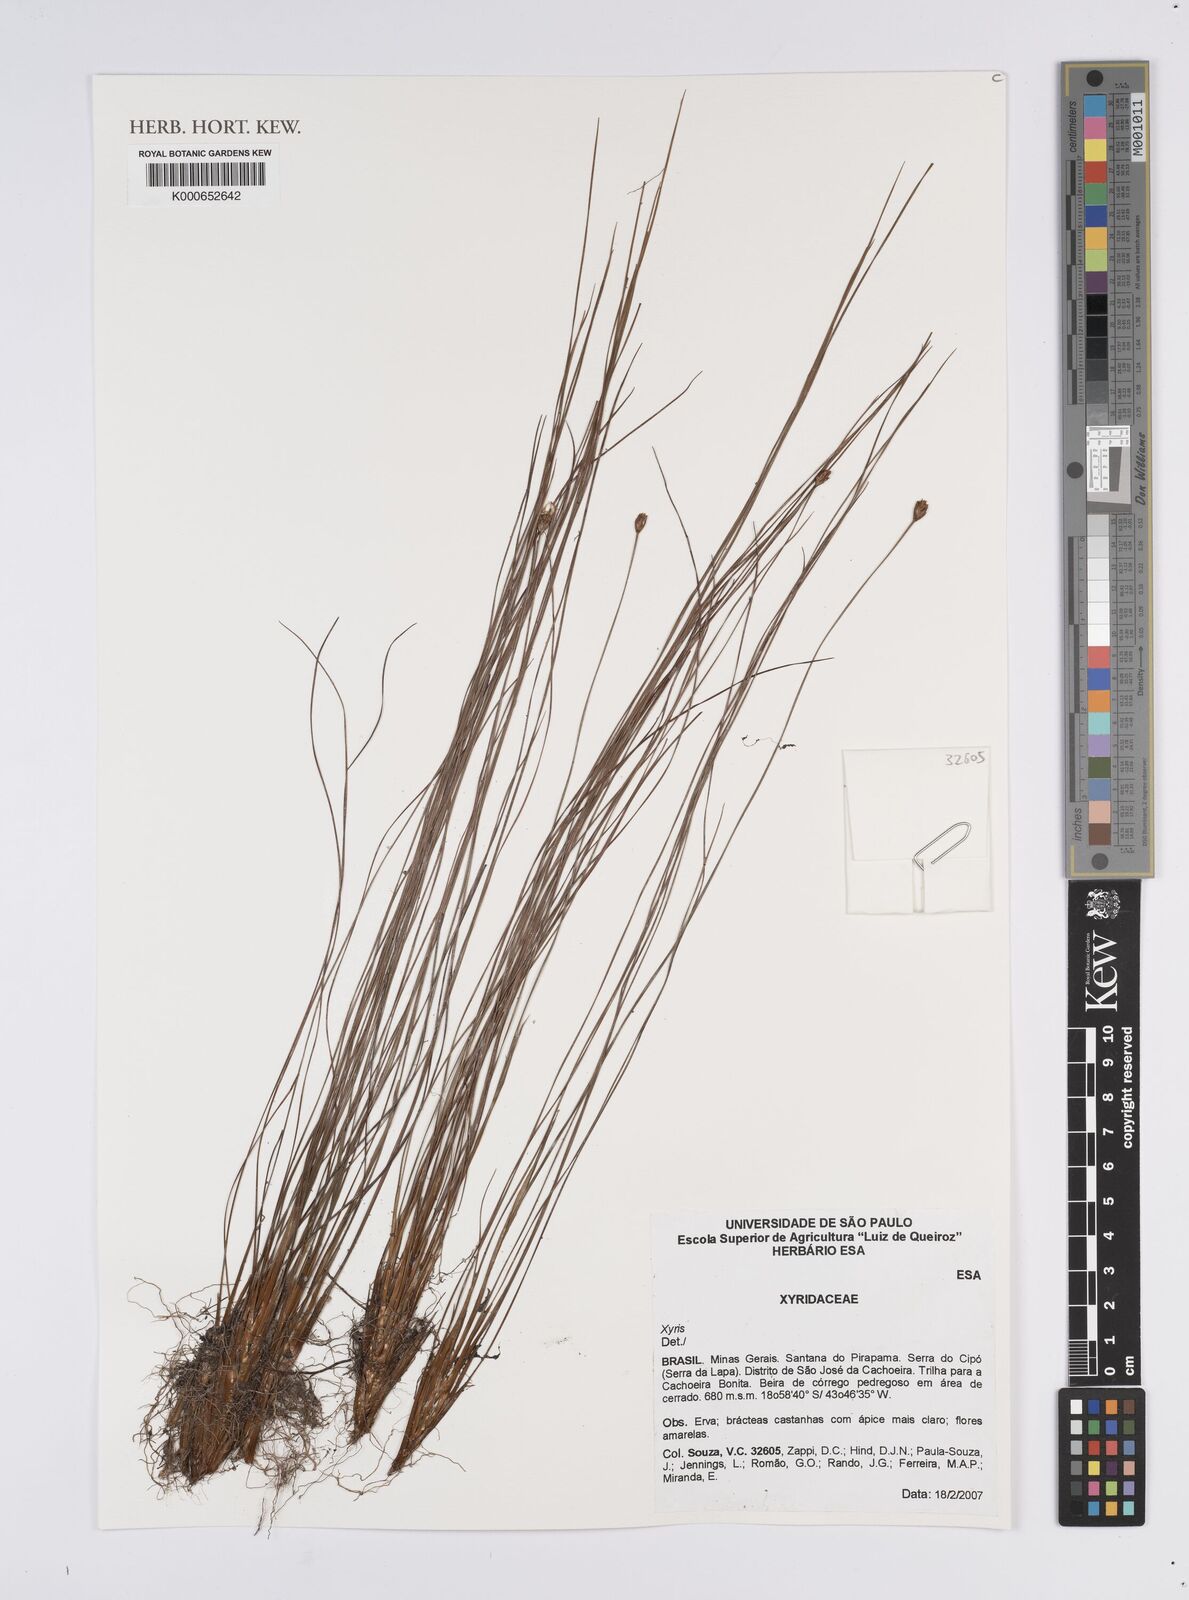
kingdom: Plantae
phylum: Tracheophyta
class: Liliopsida
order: Poales
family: Xyridaceae
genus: Xyris
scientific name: Xyris
